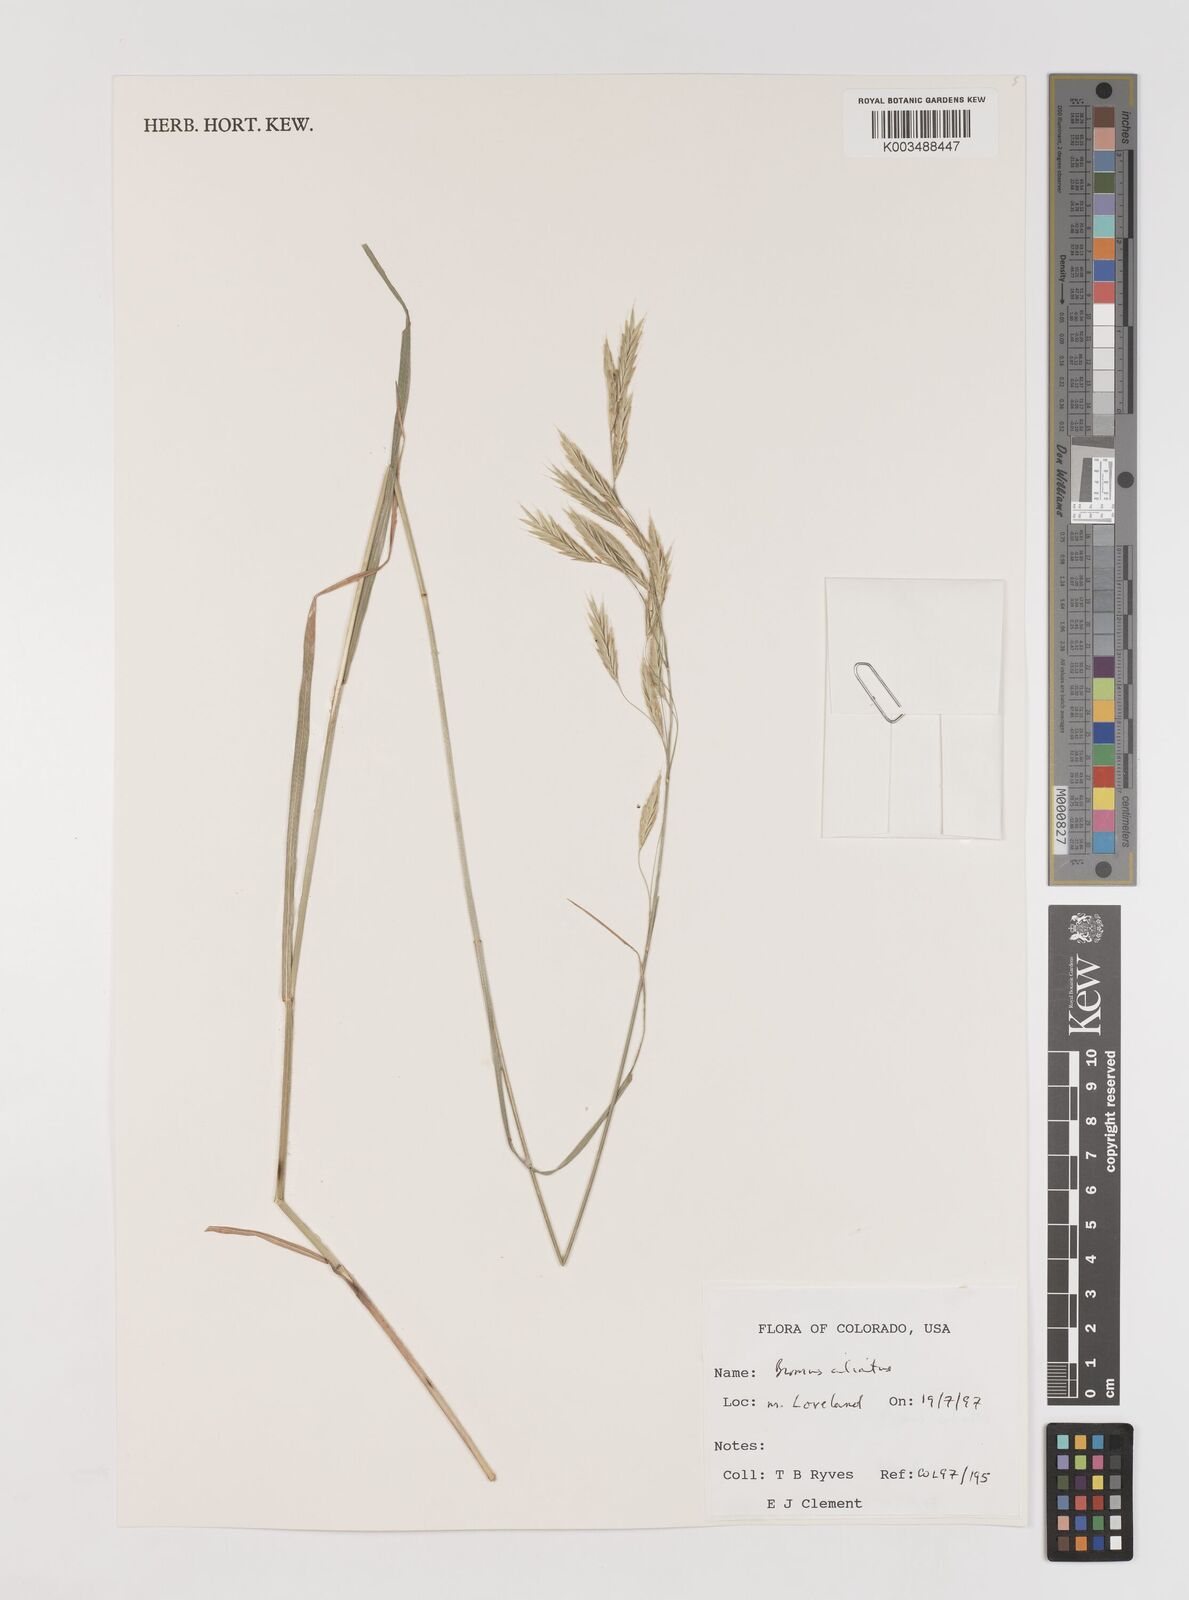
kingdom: Plantae
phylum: Tracheophyta
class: Liliopsida
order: Poales
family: Poaceae
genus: Bromus
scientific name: Bromus ciliatus
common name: Fringe brome
